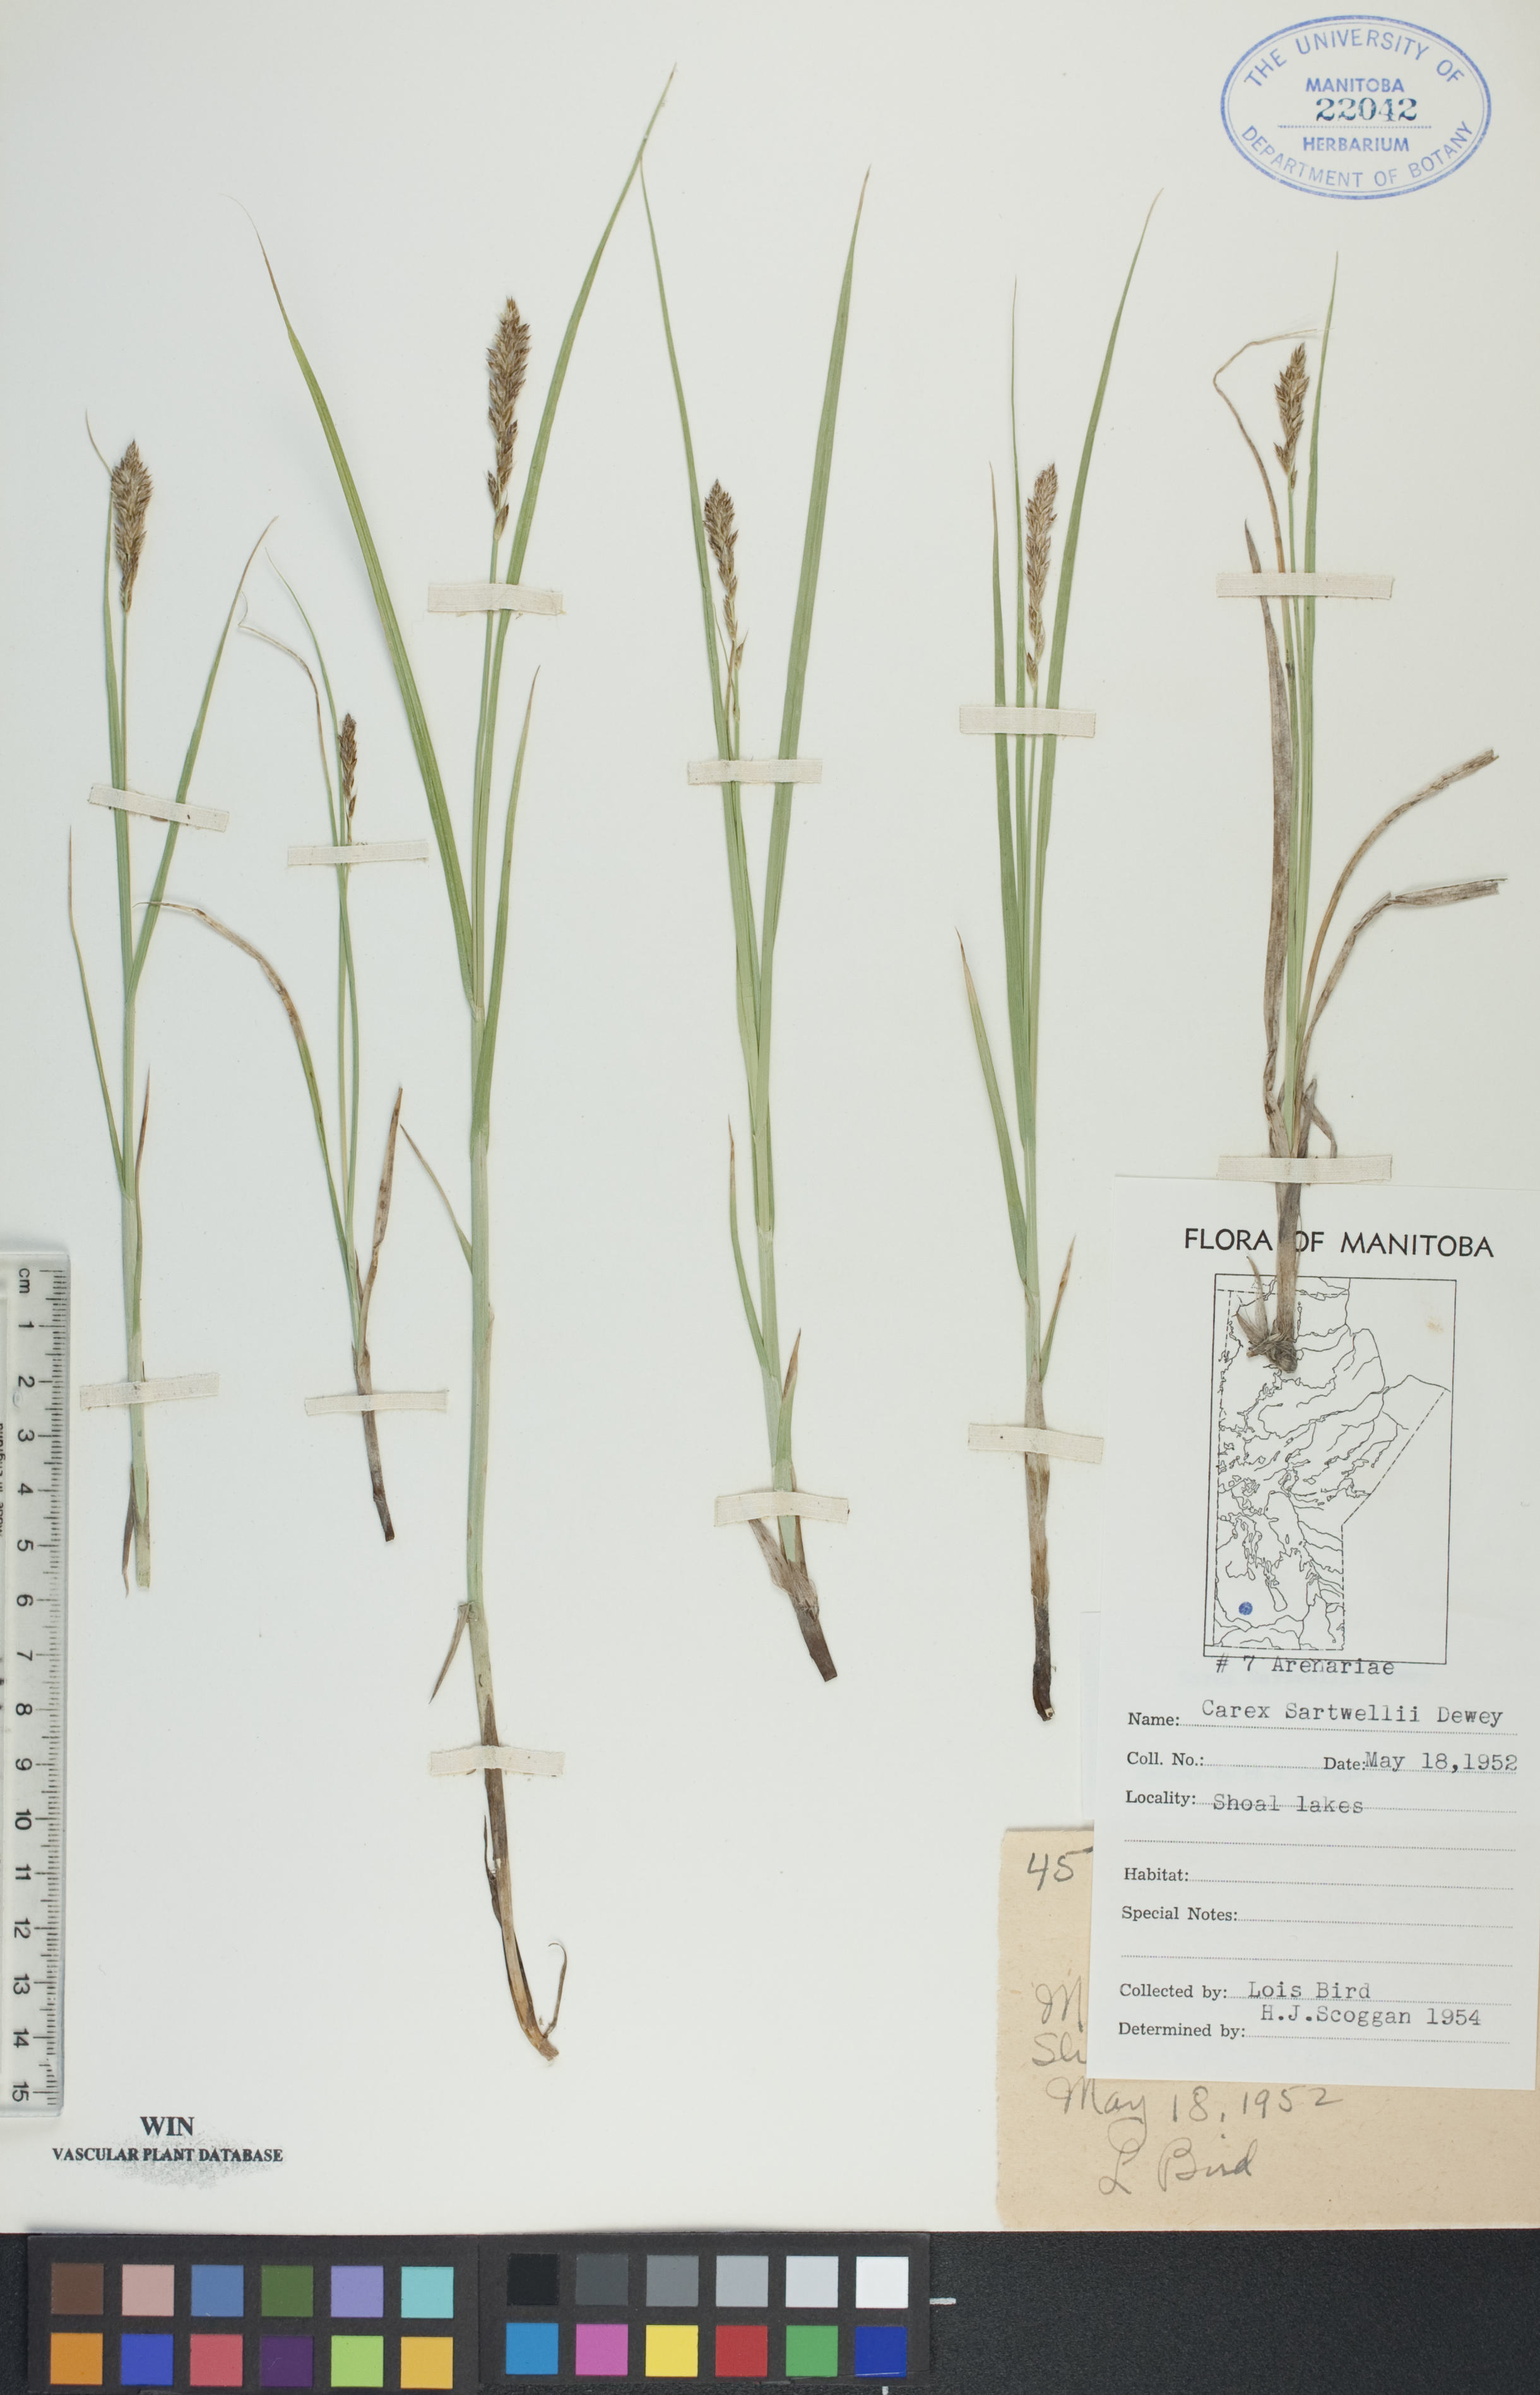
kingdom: Plantae
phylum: Tracheophyta
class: Liliopsida
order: Poales
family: Cyperaceae
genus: Carex
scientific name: Carex sartwellii
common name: Sartwell's sedge
